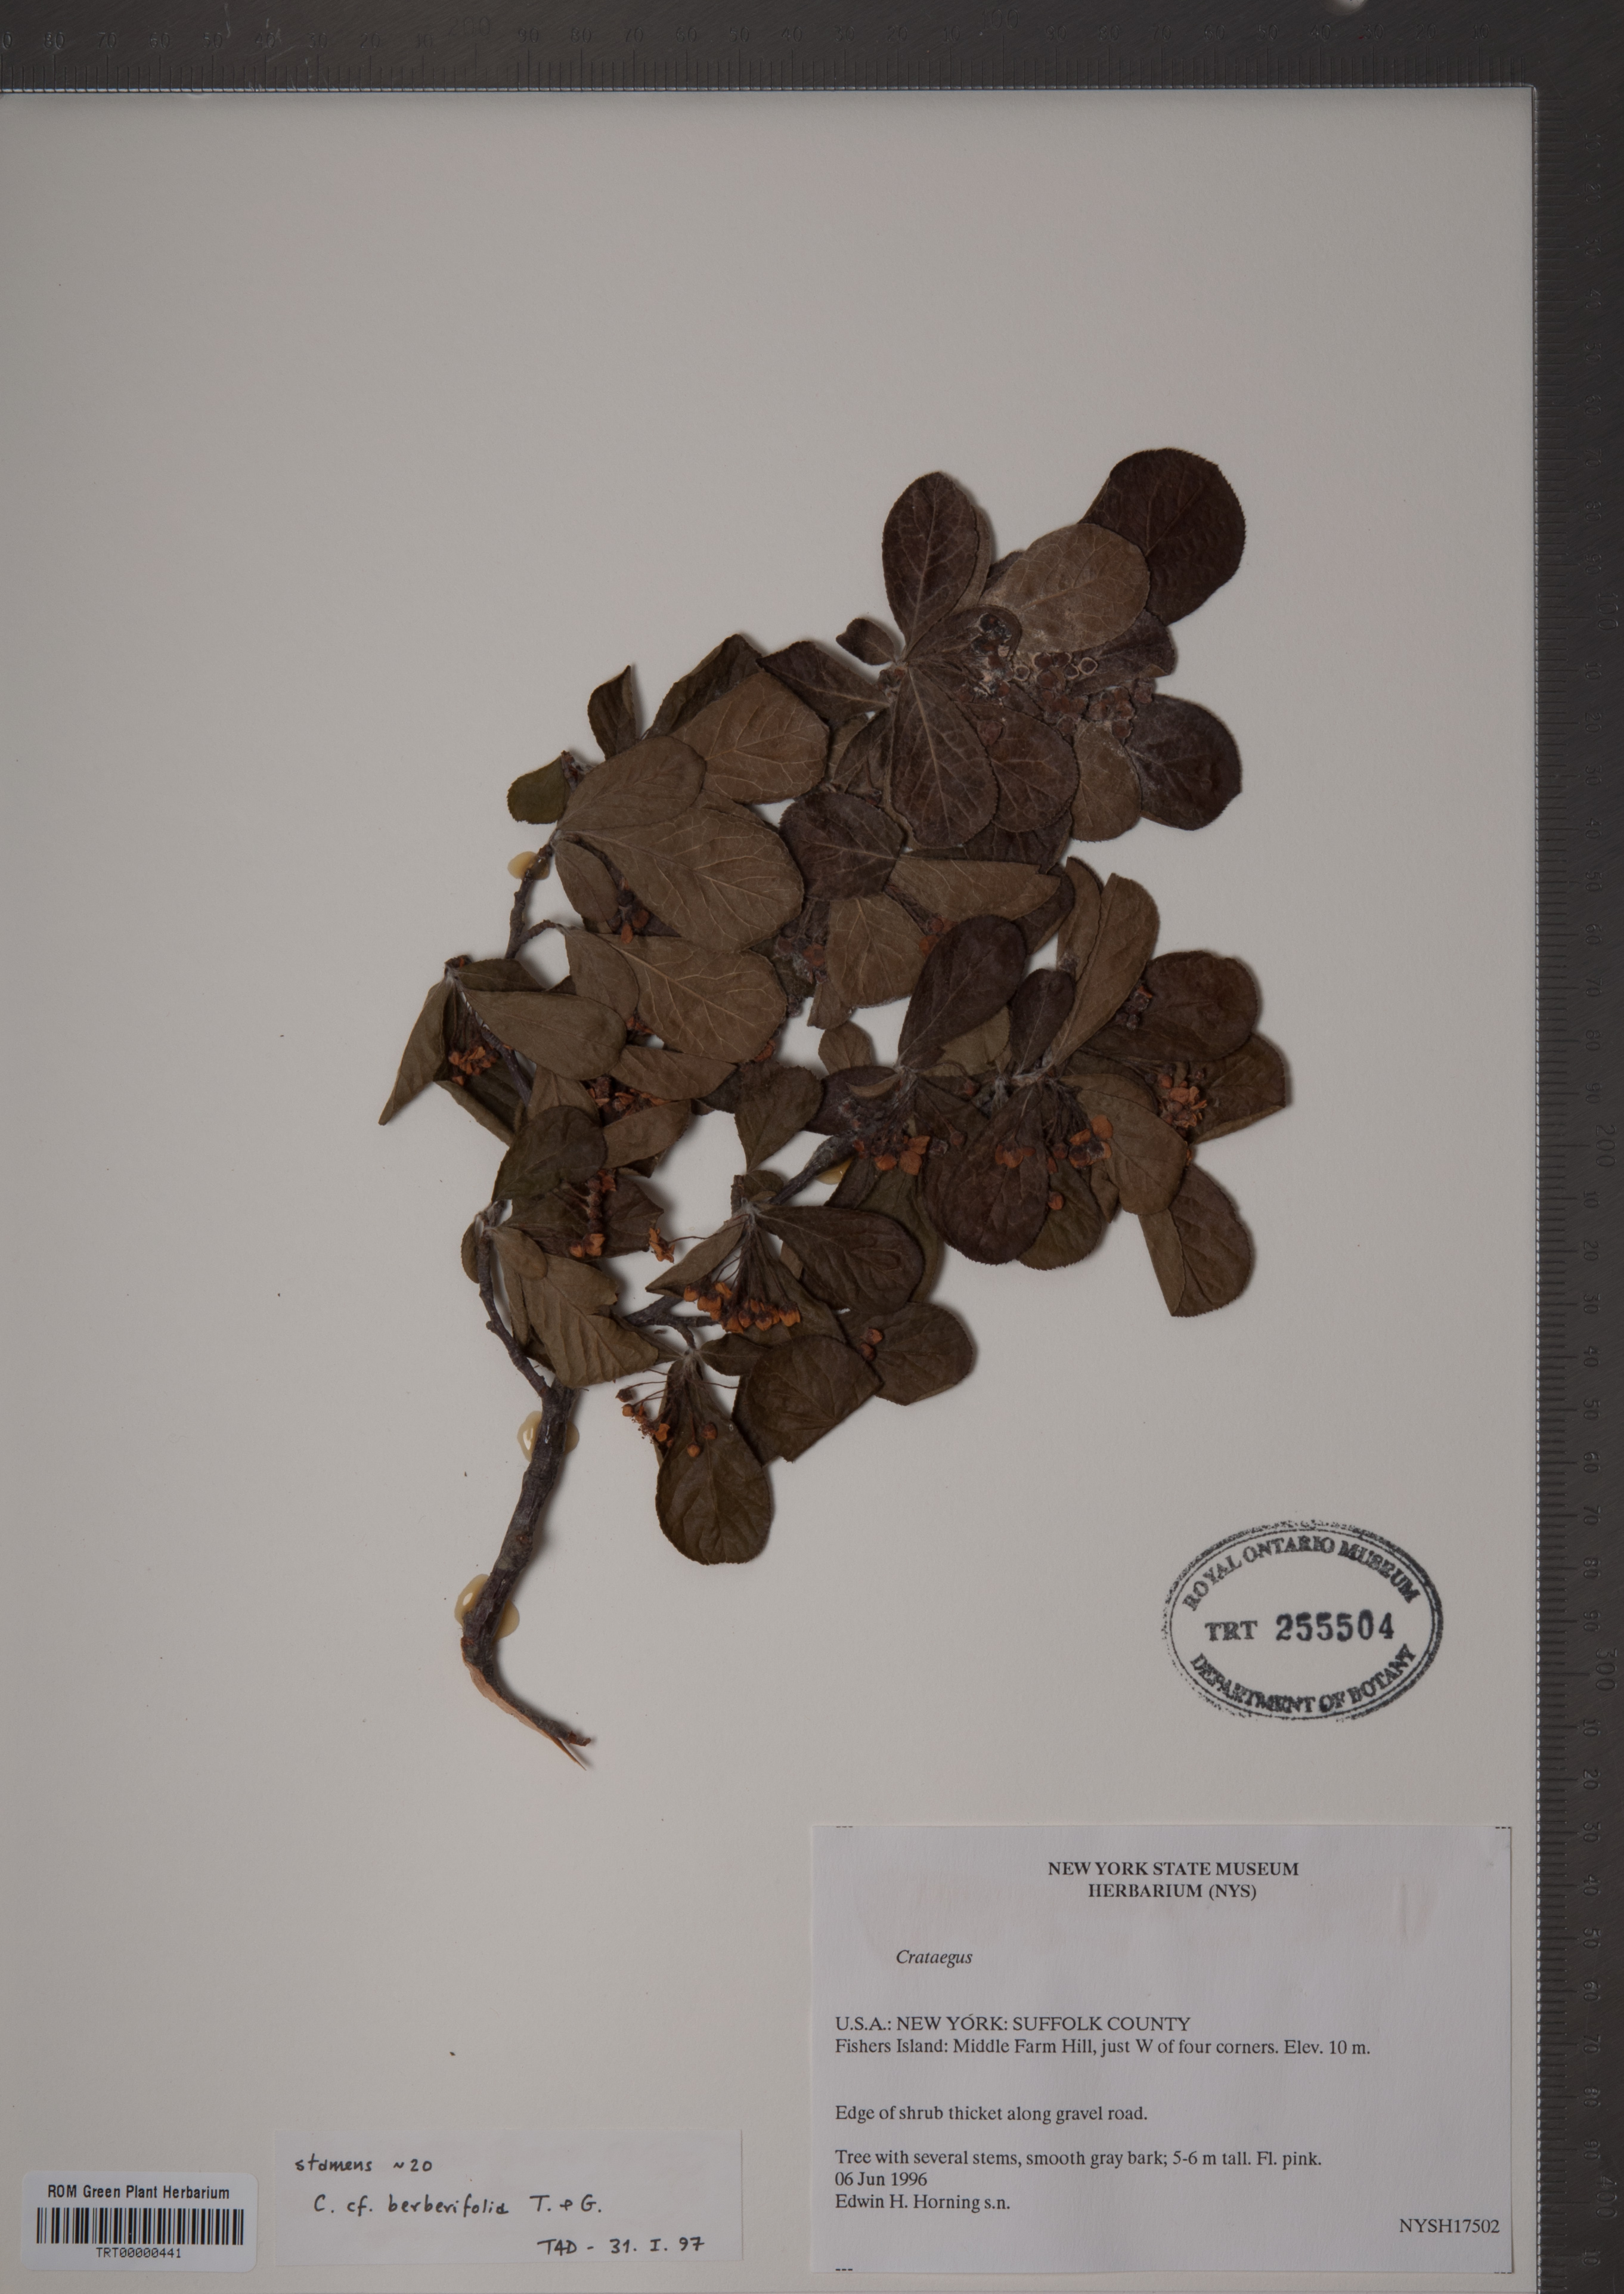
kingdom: Plantae
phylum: Tracheophyta
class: Magnoliopsida
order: Rosales
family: Rosaceae
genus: Crataegus
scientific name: Crataegus berberifolia
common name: Barberry hawthorn
